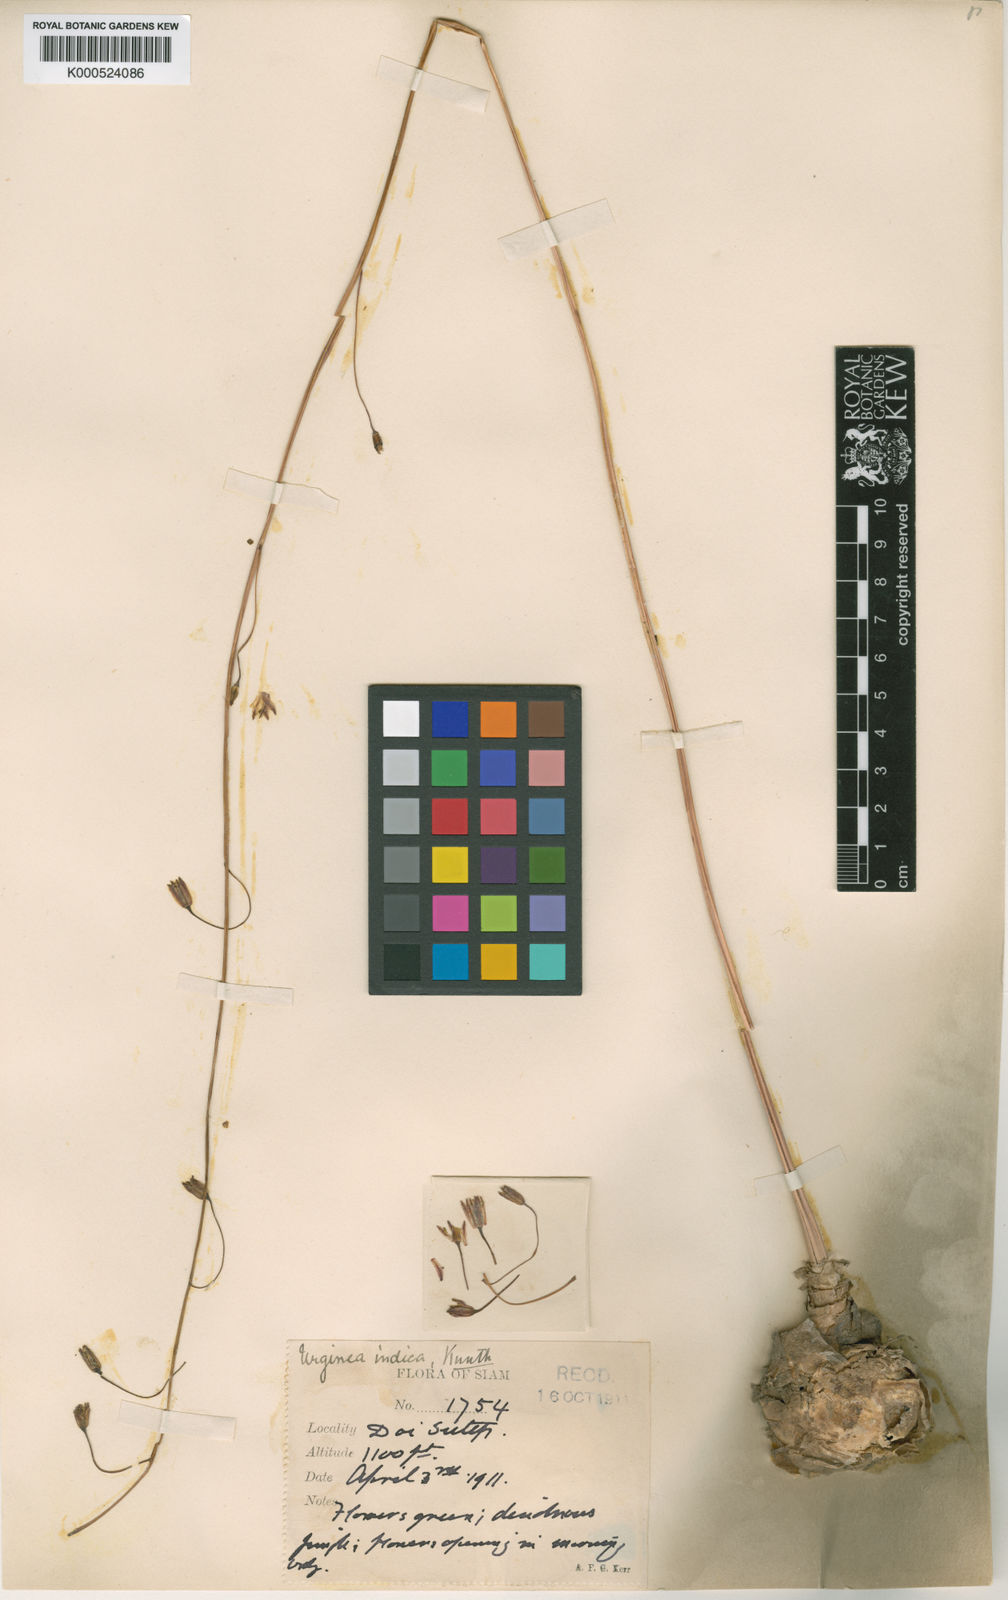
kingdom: Plantae
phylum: Tracheophyta
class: Liliopsida
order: Asparagales
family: Asparagaceae
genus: Drimia
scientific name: Drimia indica
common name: Indian-squill
